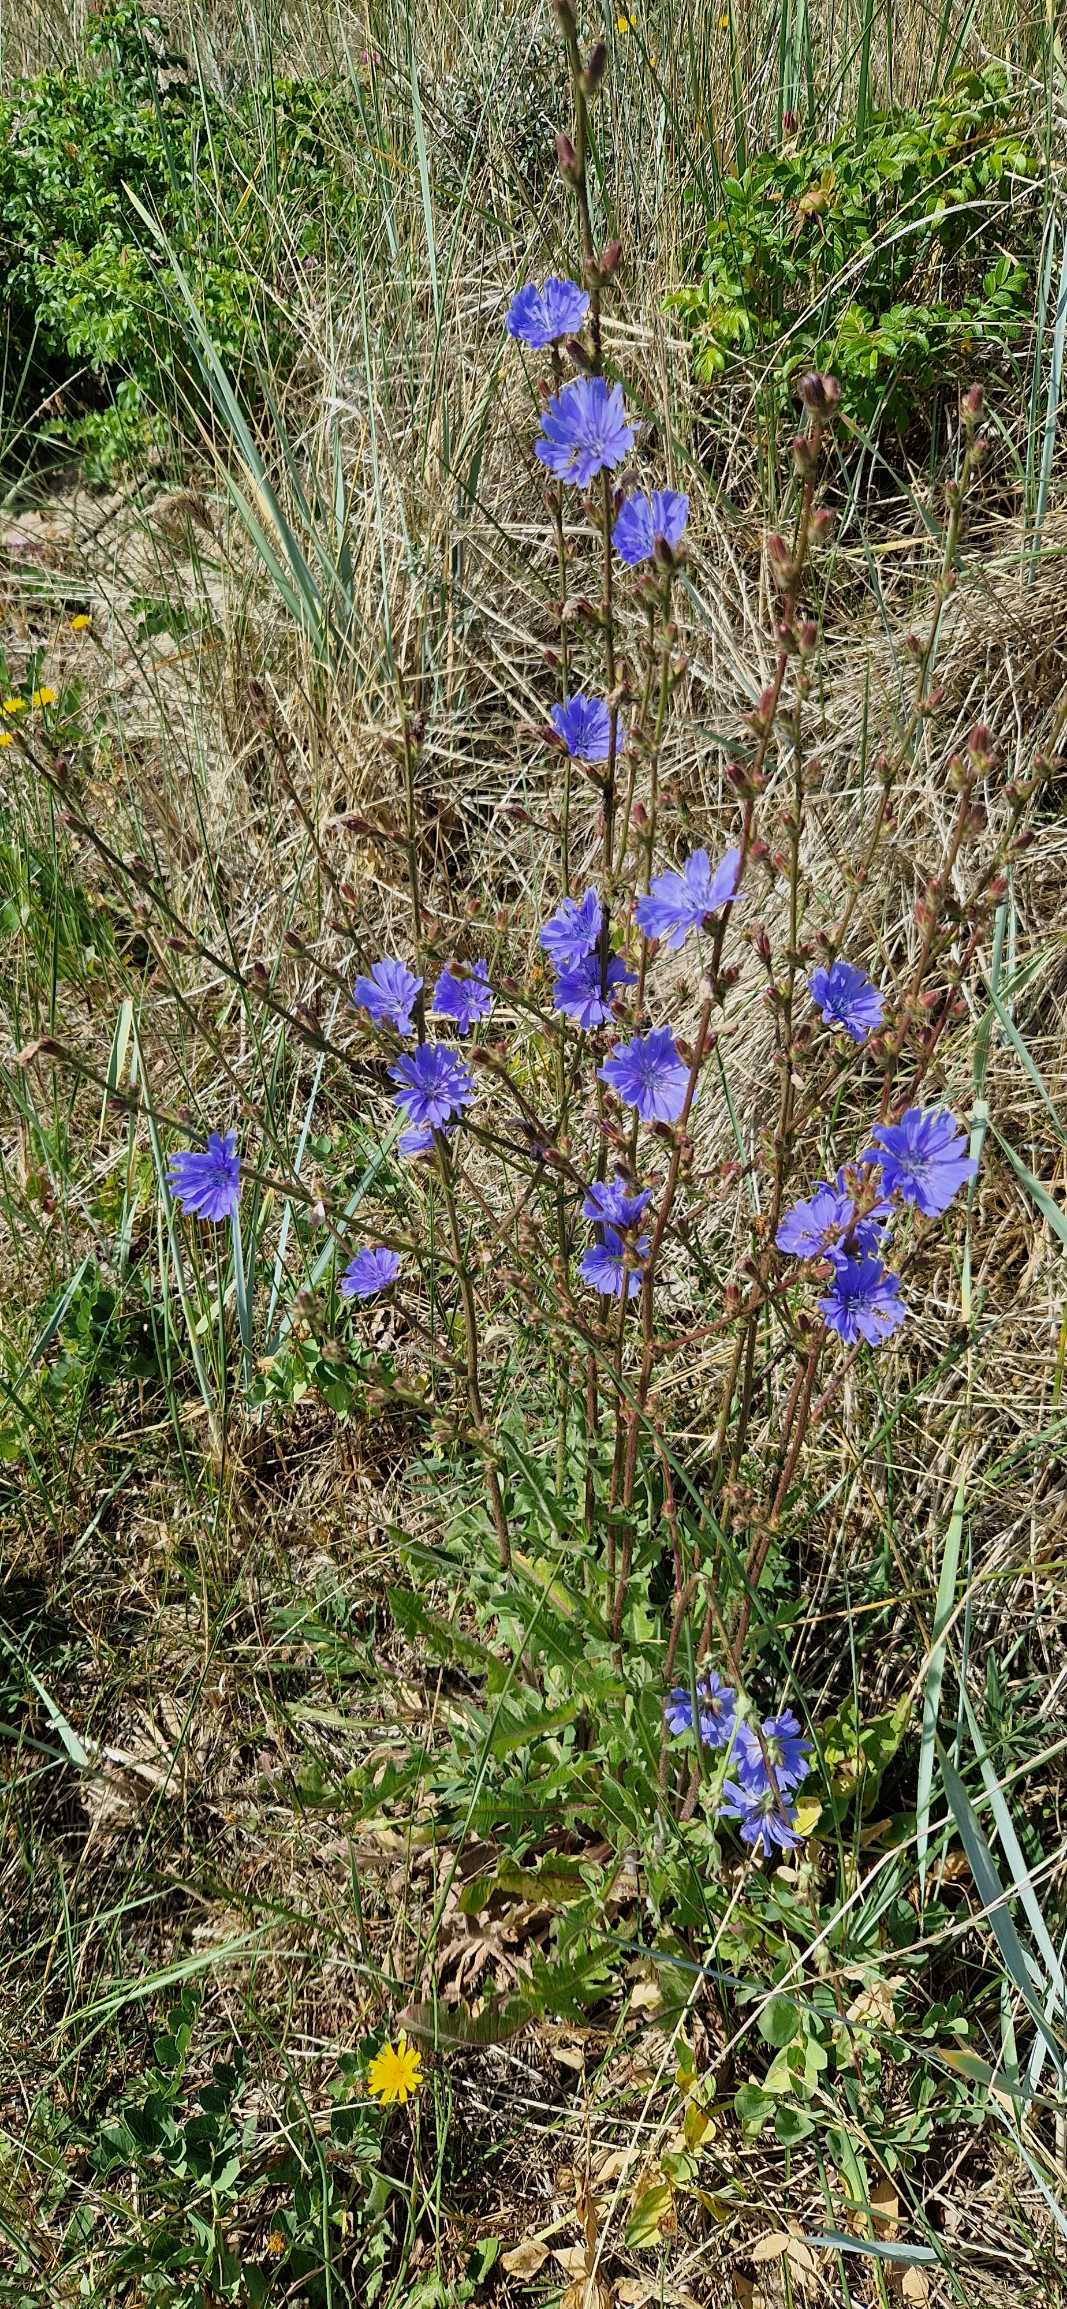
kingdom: Plantae
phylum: Tracheophyta
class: Magnoliopsida
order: Asterales
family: Asteraceae
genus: Cichorium
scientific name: Cichorium intybus
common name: Cikorie
